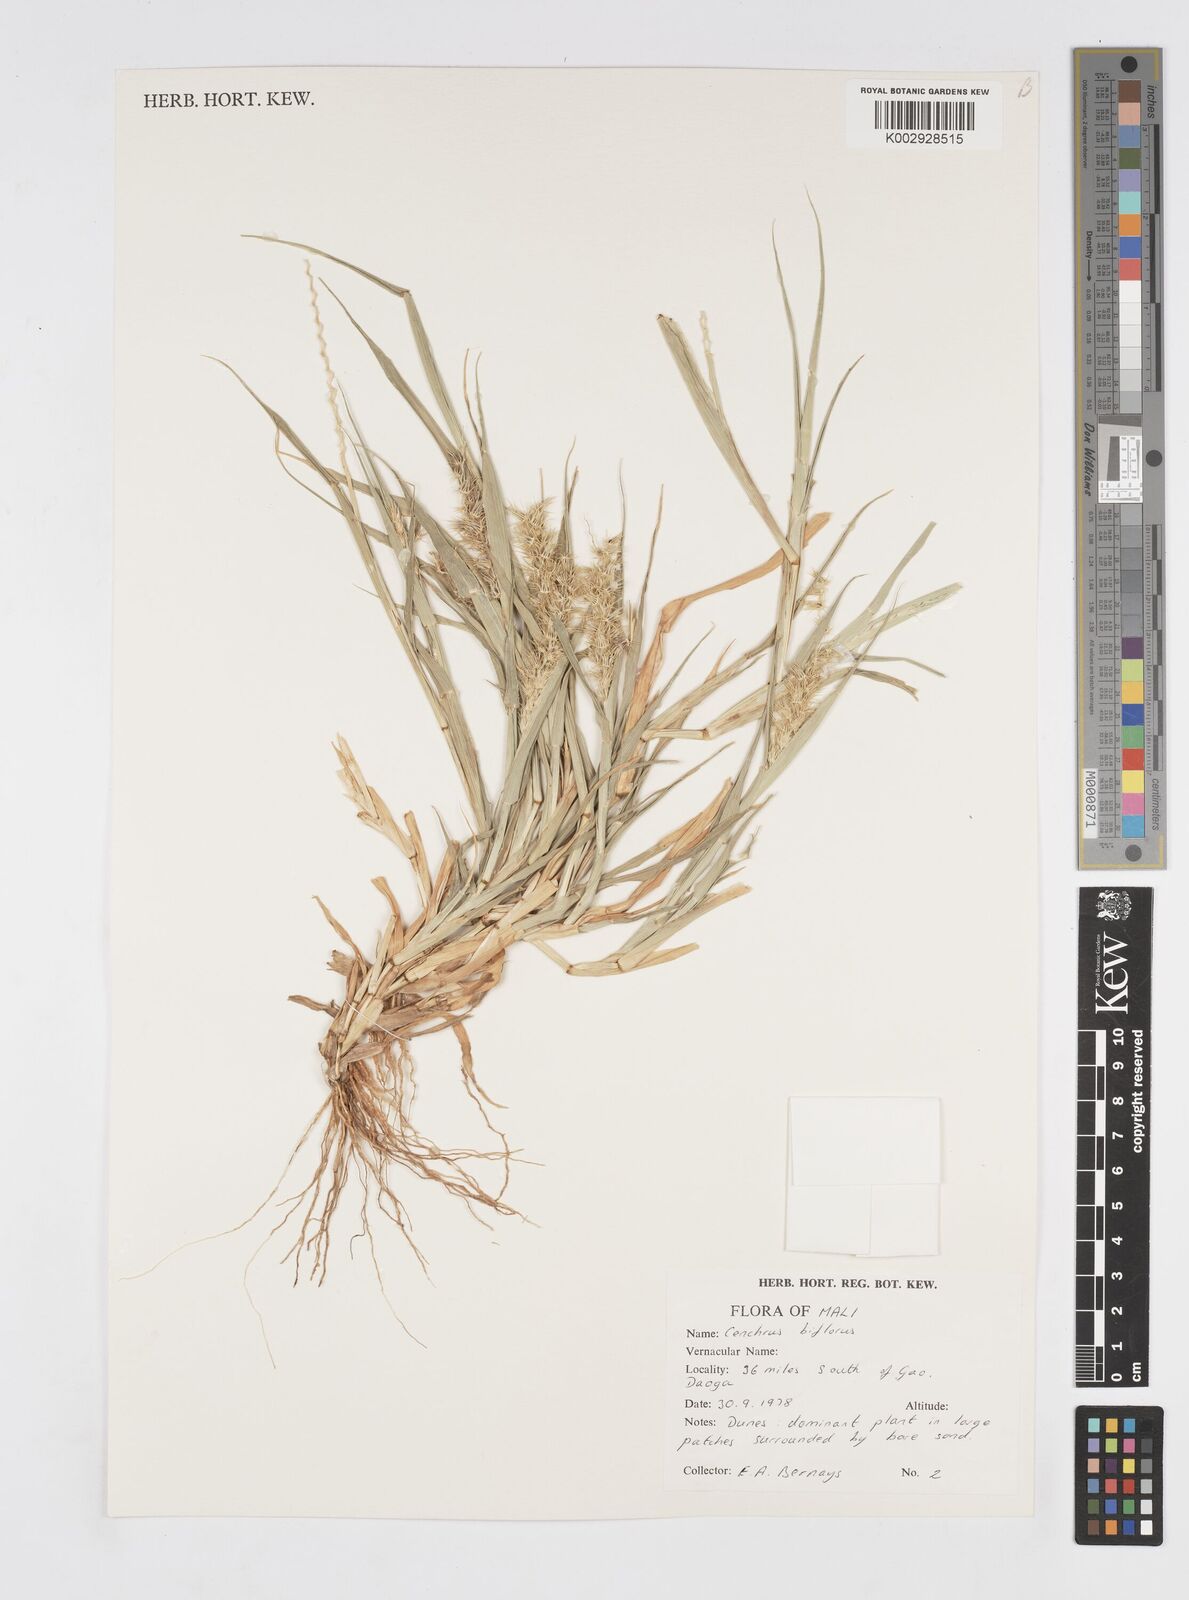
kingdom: Plantae
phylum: Tracheophyta
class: Liliopsida
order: Poales
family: Poaceae
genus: Cenchrus
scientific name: Cenchrus biflorus
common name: Indian sandbur
